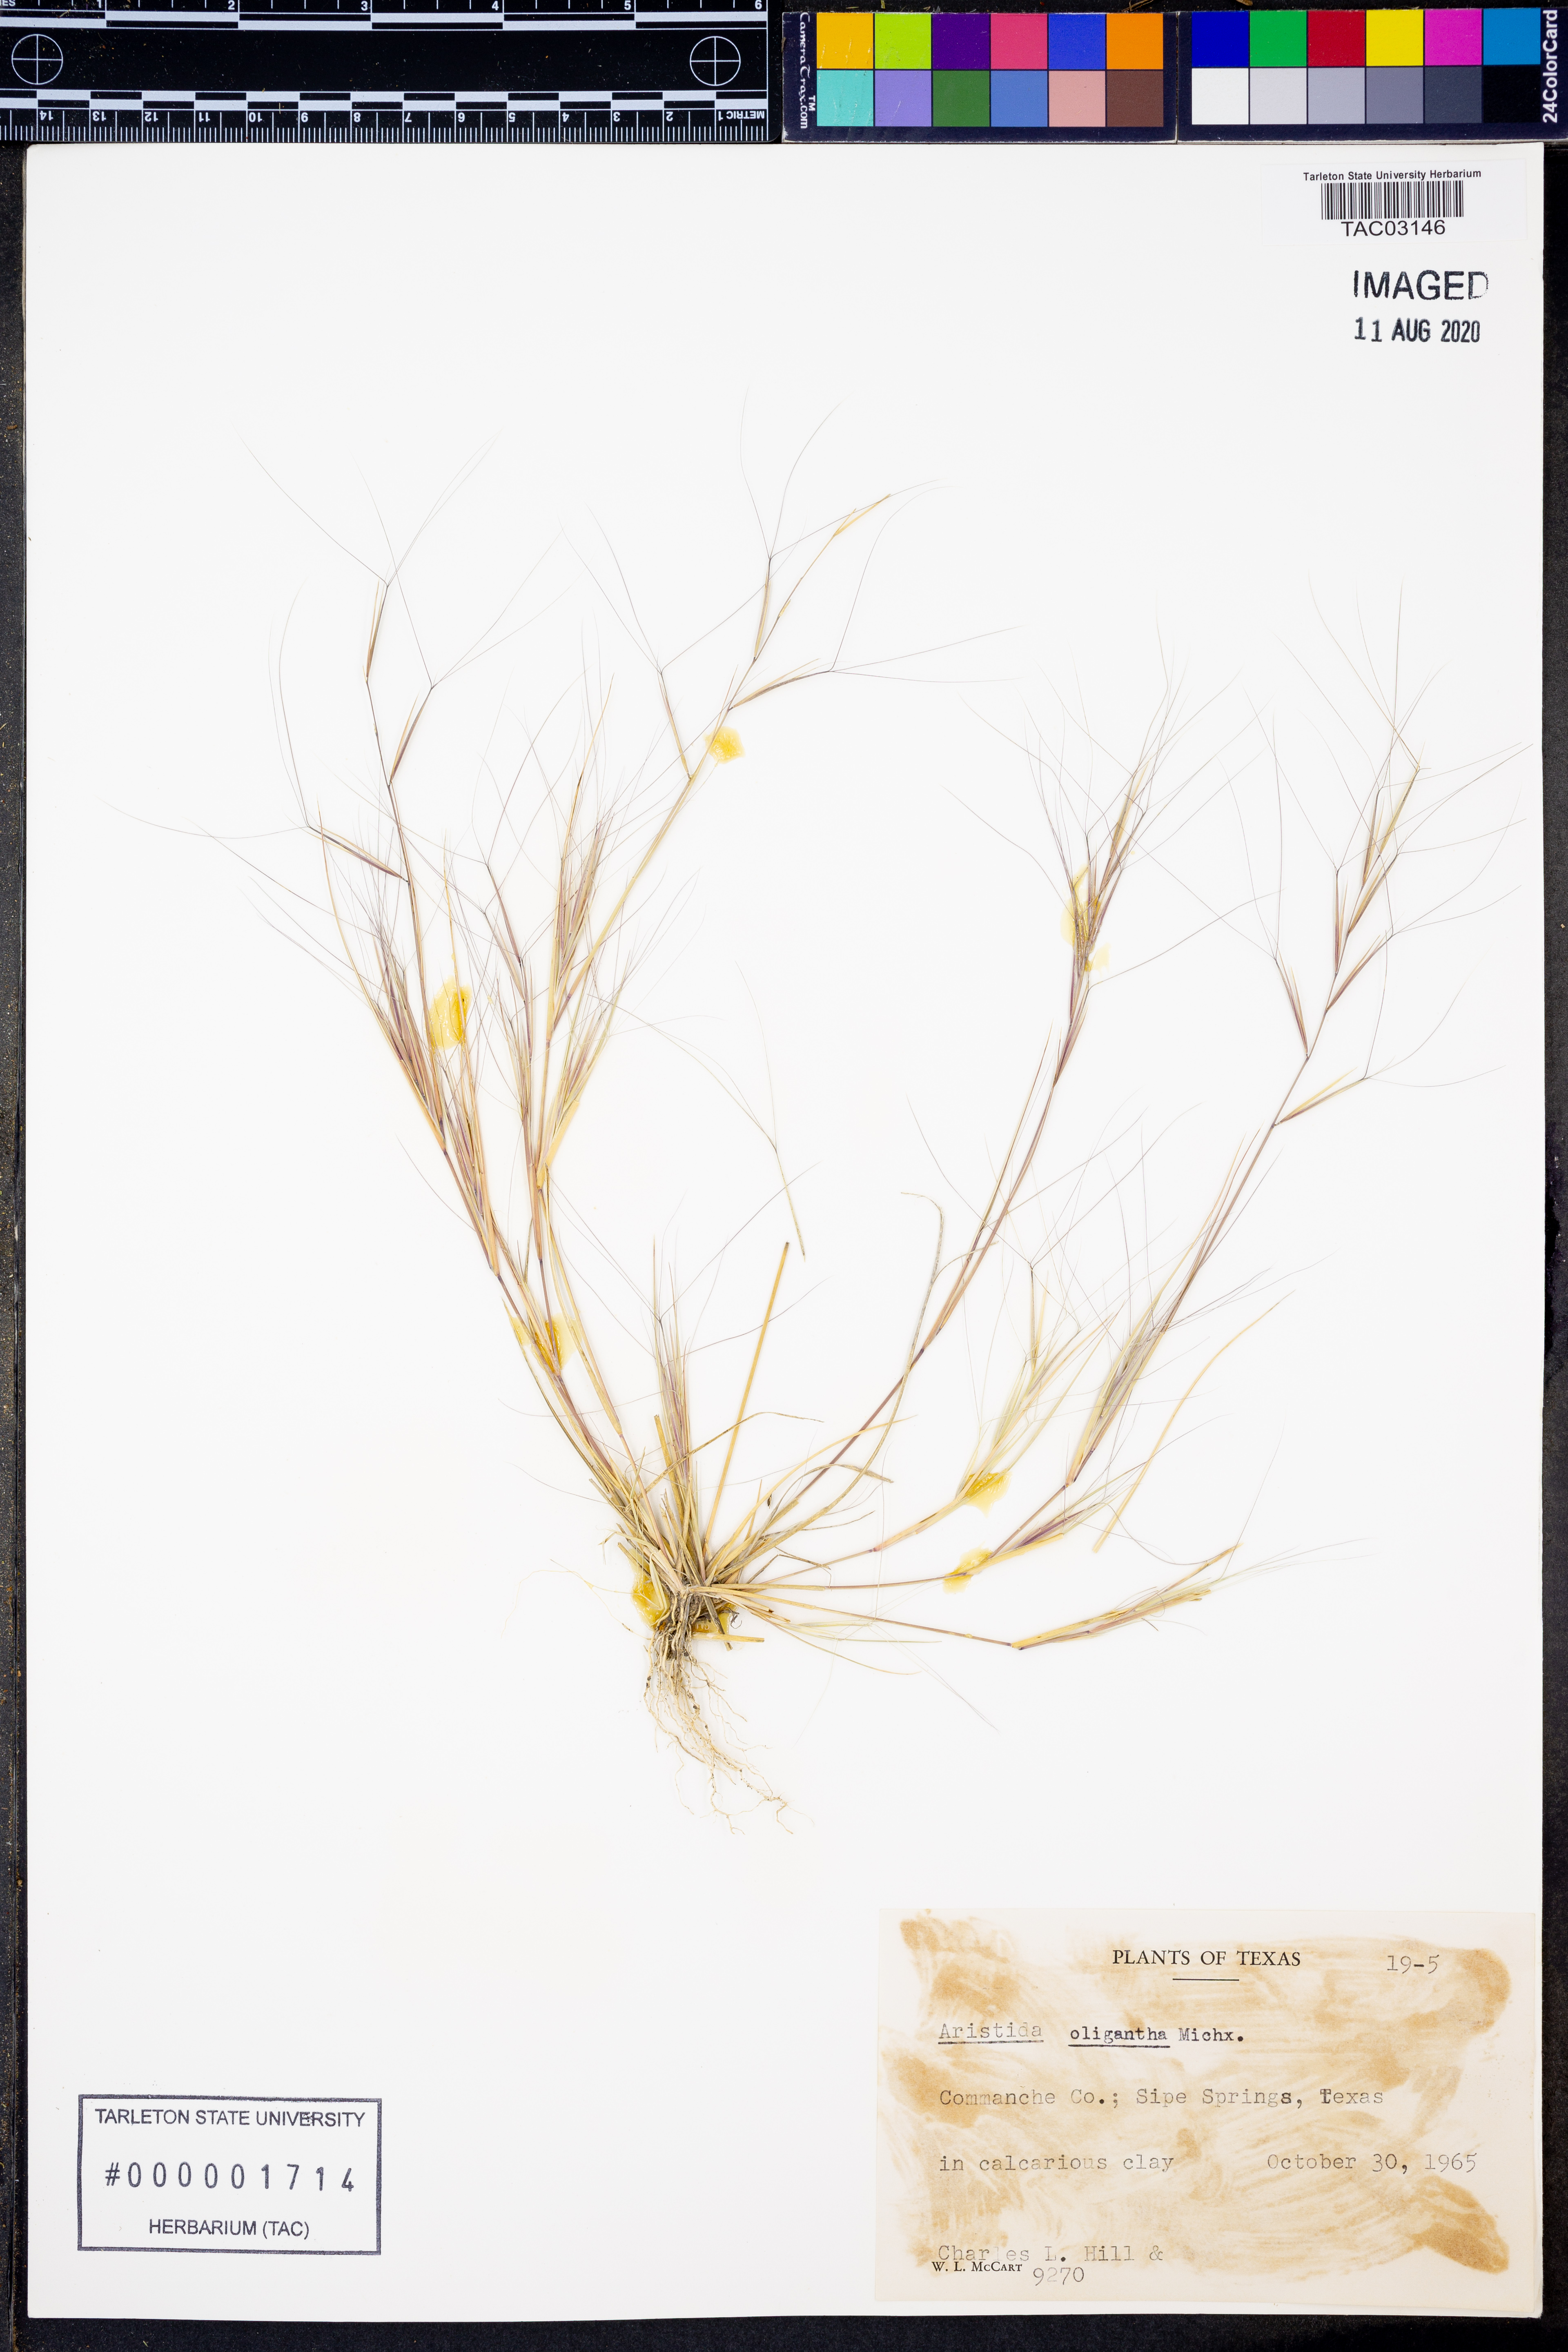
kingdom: Plantae
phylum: Tracheophyta
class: Liliopsida
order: Poales
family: Poaceae
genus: Aristida
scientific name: Aristida oligantha
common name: Few-flowered aristida
